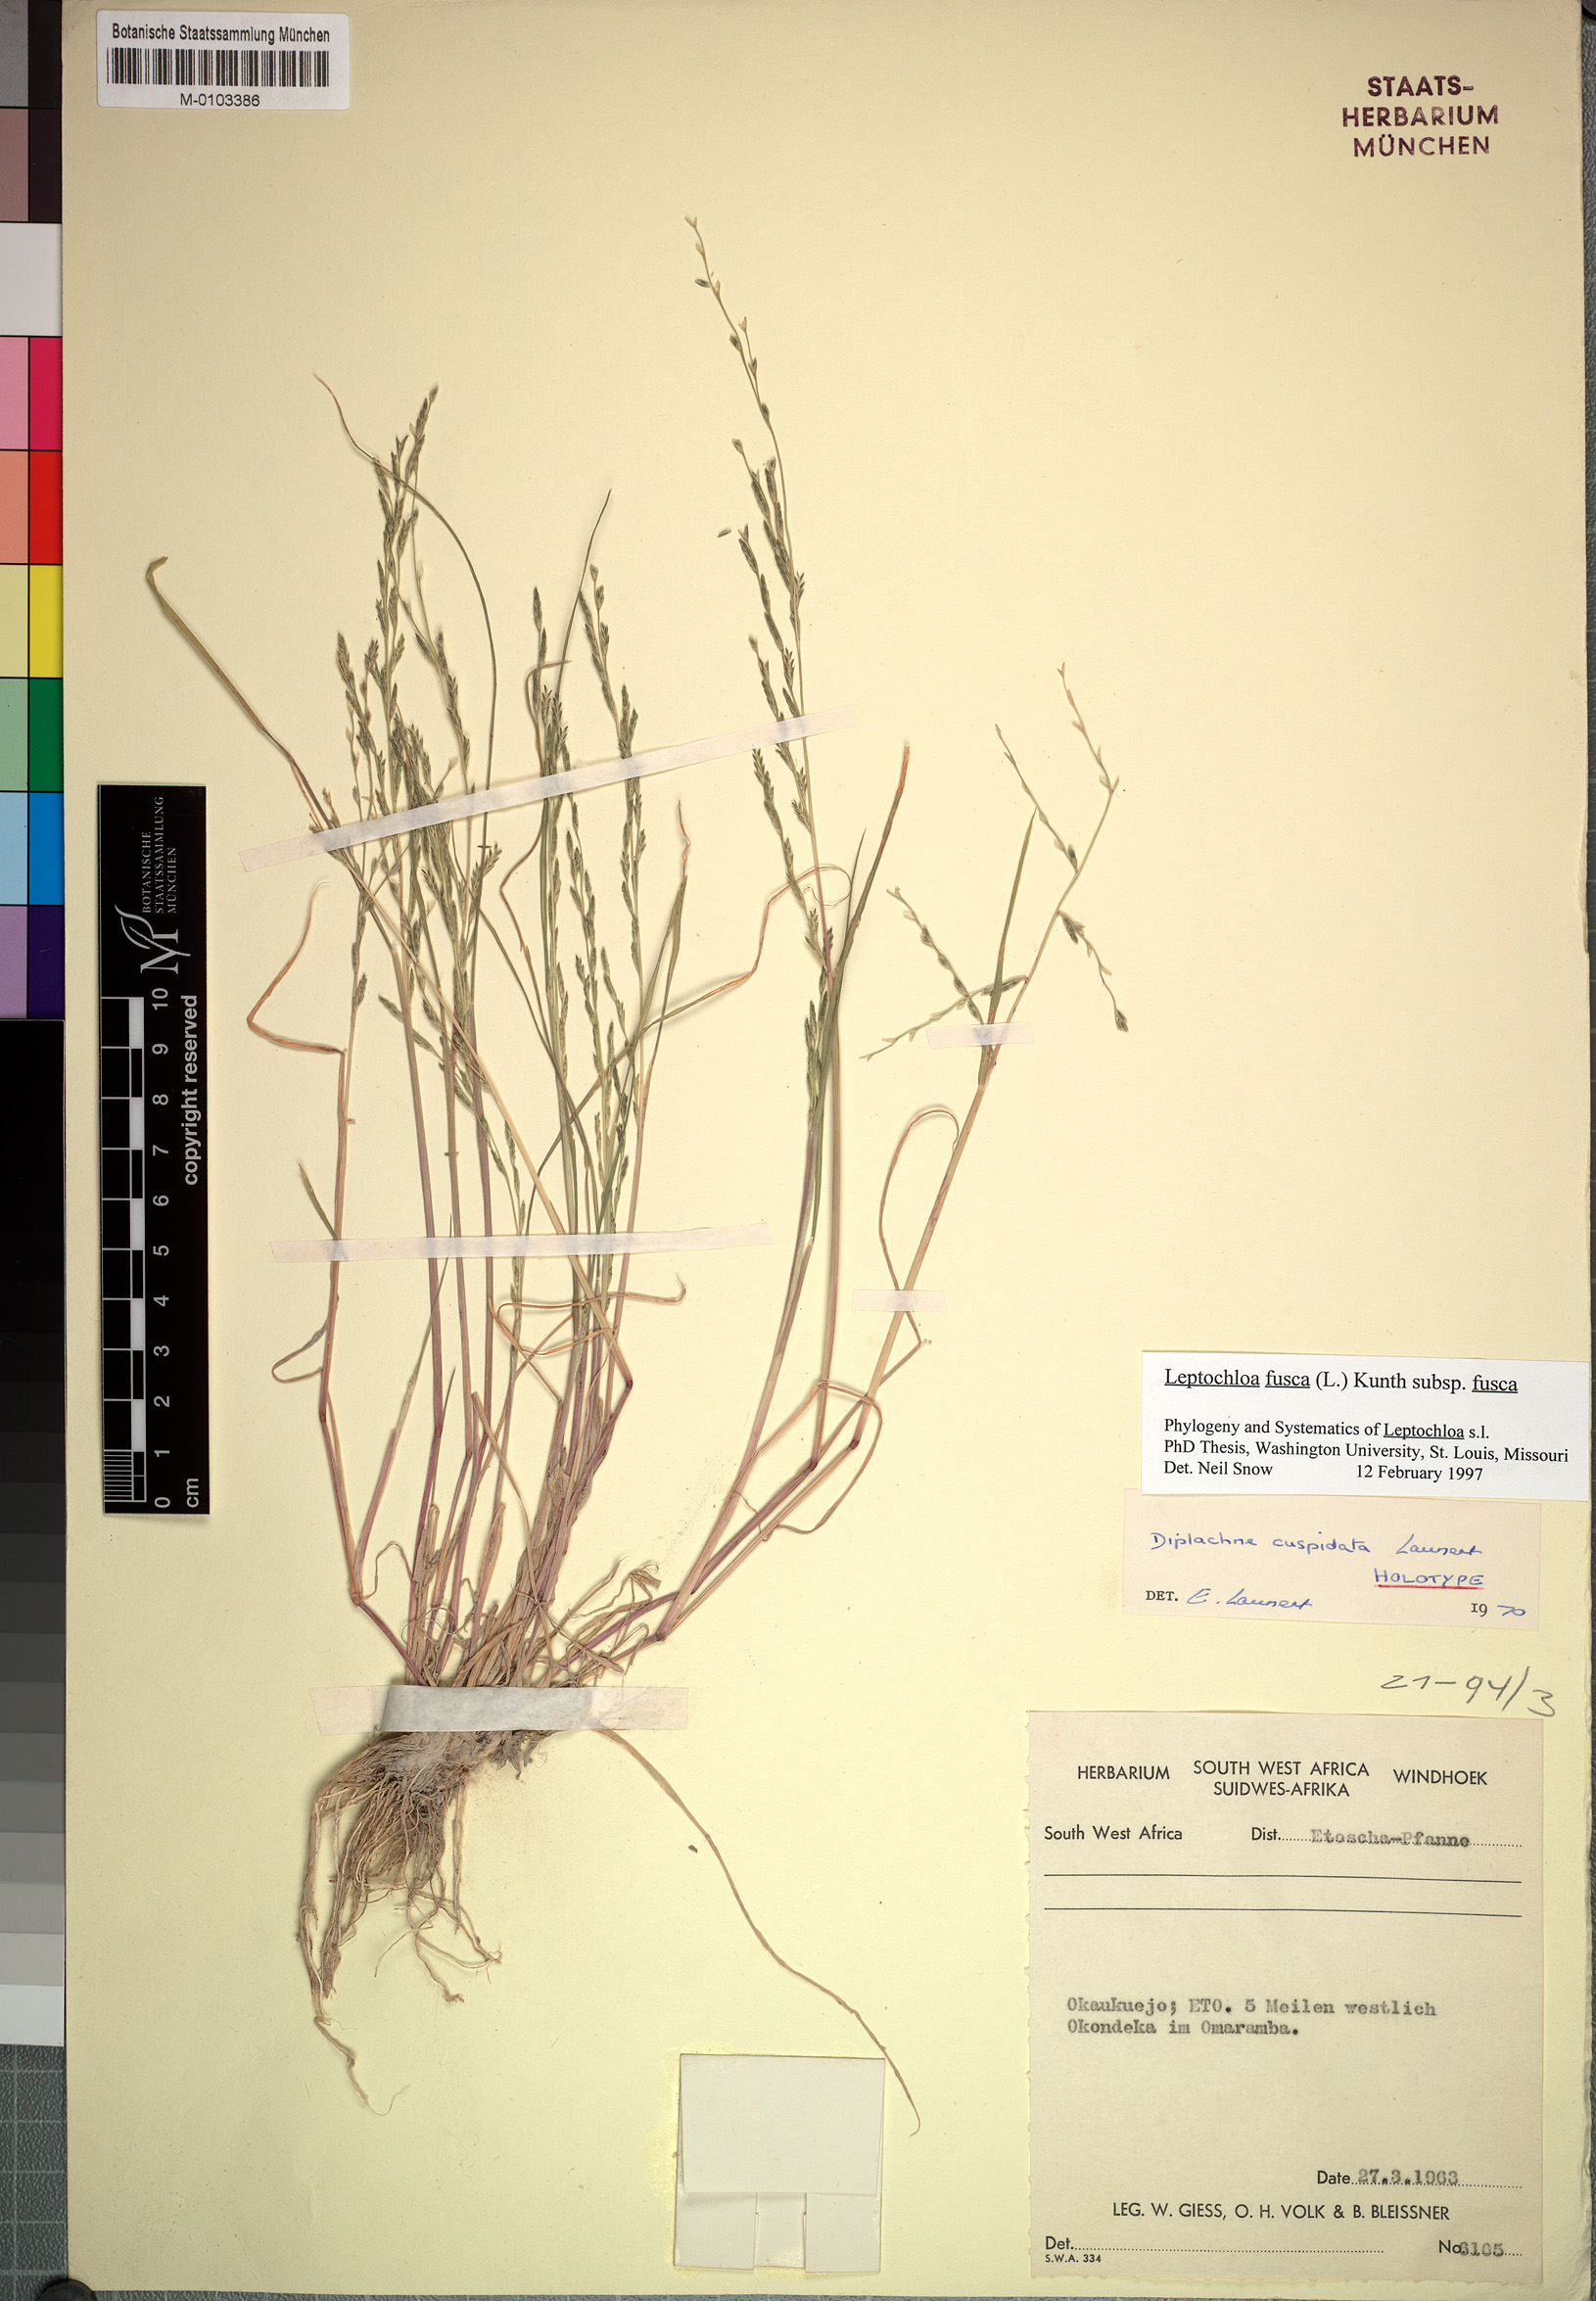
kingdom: Plantae
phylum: Tracheophyta
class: Liliopsida
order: Poales
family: Poaceae
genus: Diplachne
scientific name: Diplachne fusca
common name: Brown beetle grass
